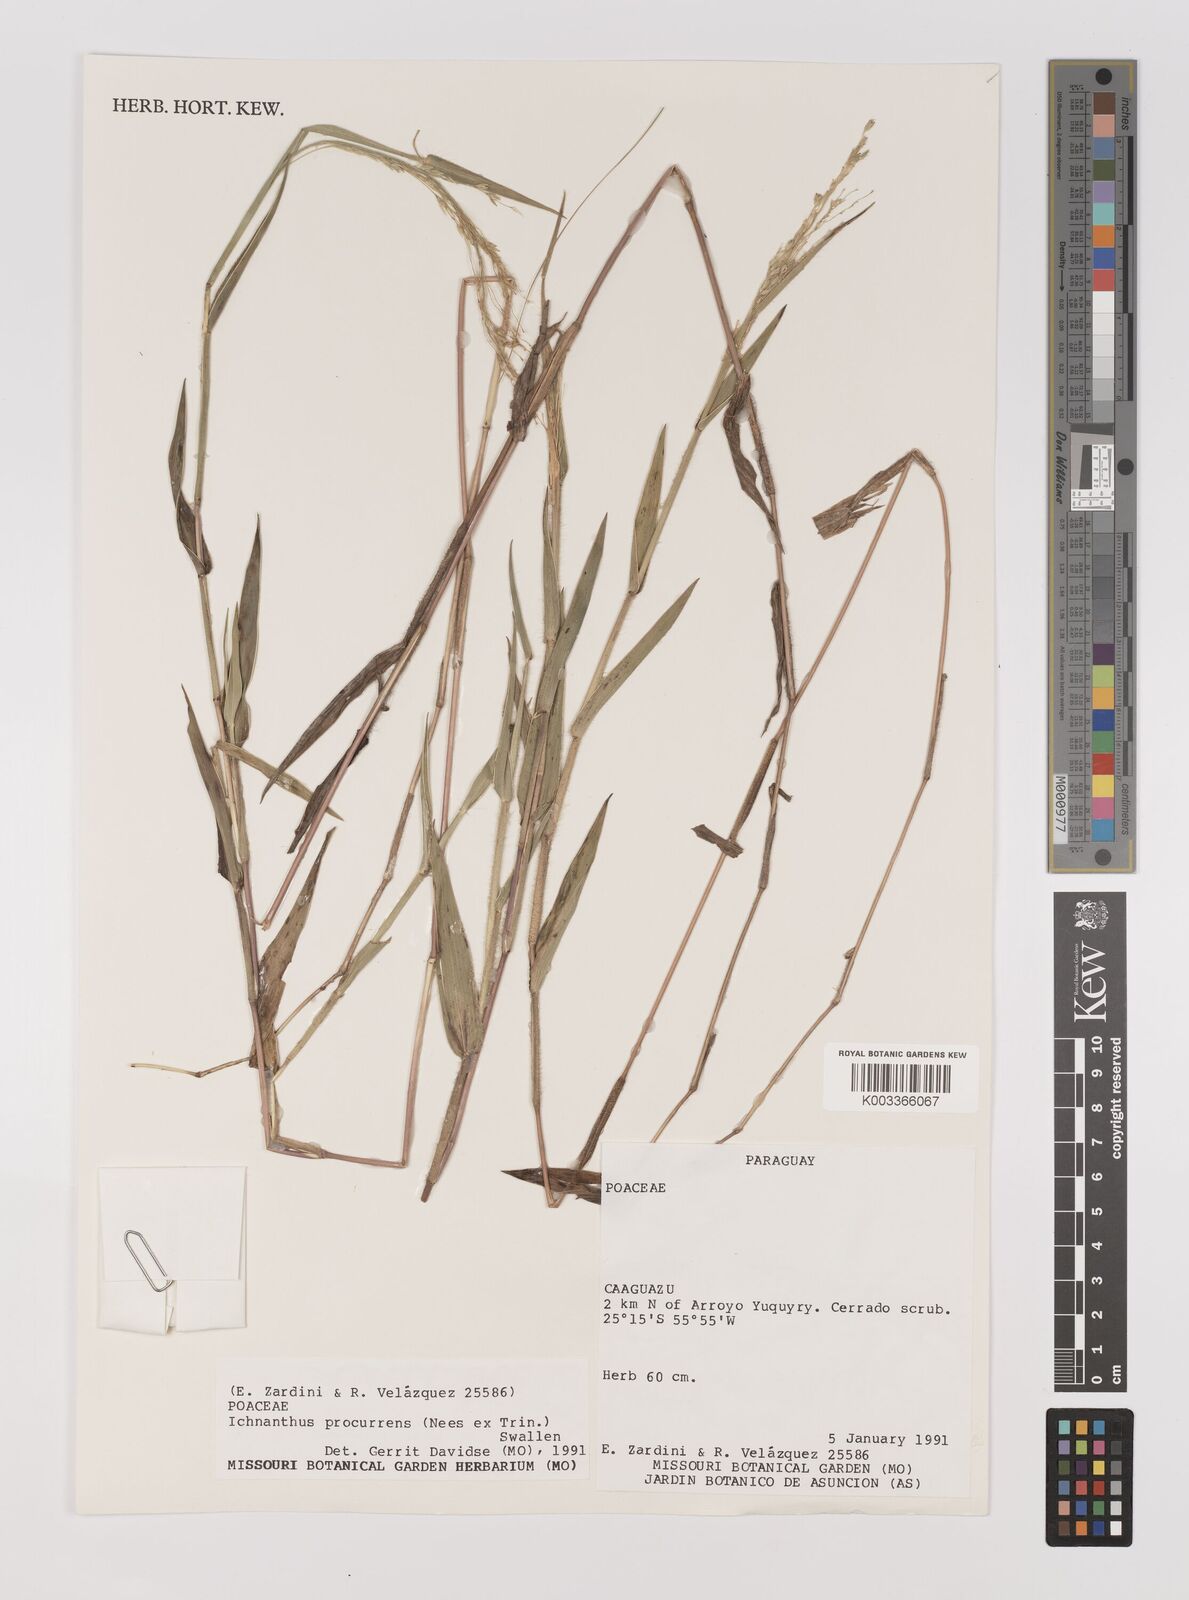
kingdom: Plantae
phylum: Tracheophyta
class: Liliopsida
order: Poales
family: Poaceae
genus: Oedochloa
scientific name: Oedochloa procurrens
